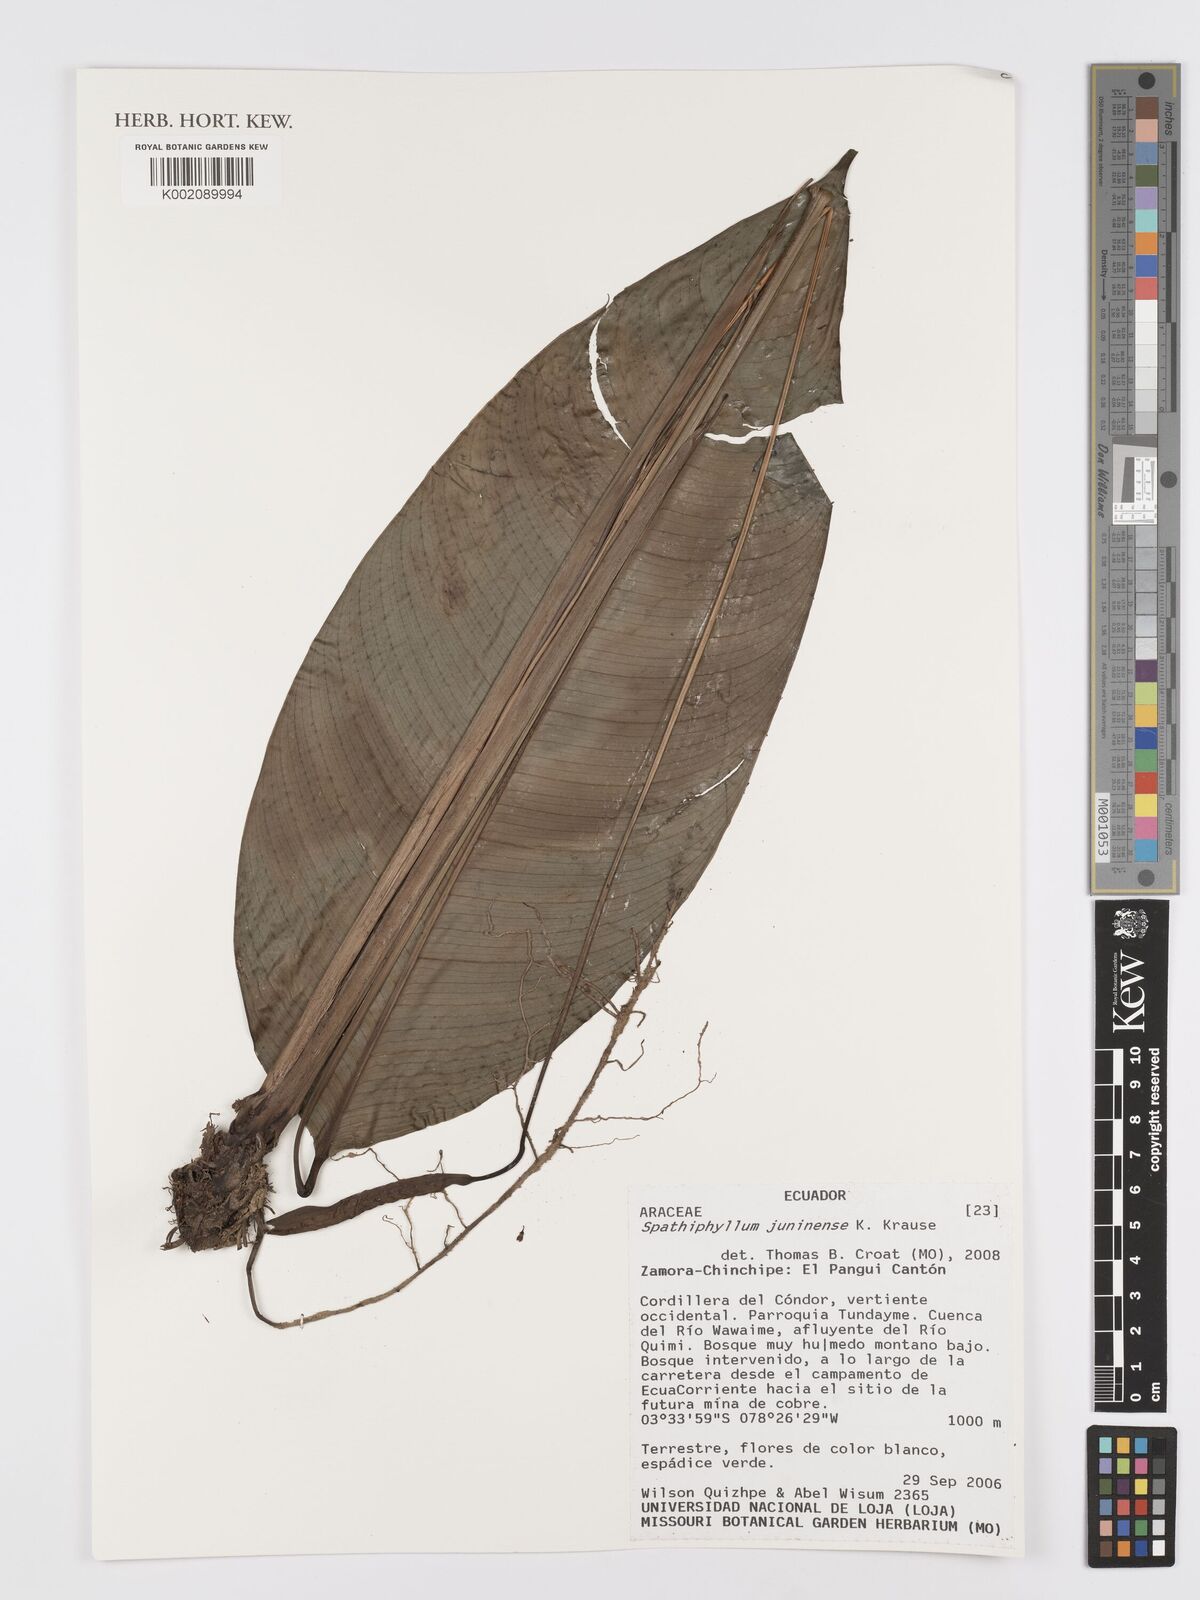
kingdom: Plantae
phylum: Tracheophyta
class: Liliopsida
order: Alismatales
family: Araceae
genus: Spathiphyllum
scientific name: Spathiphyllum juninense
